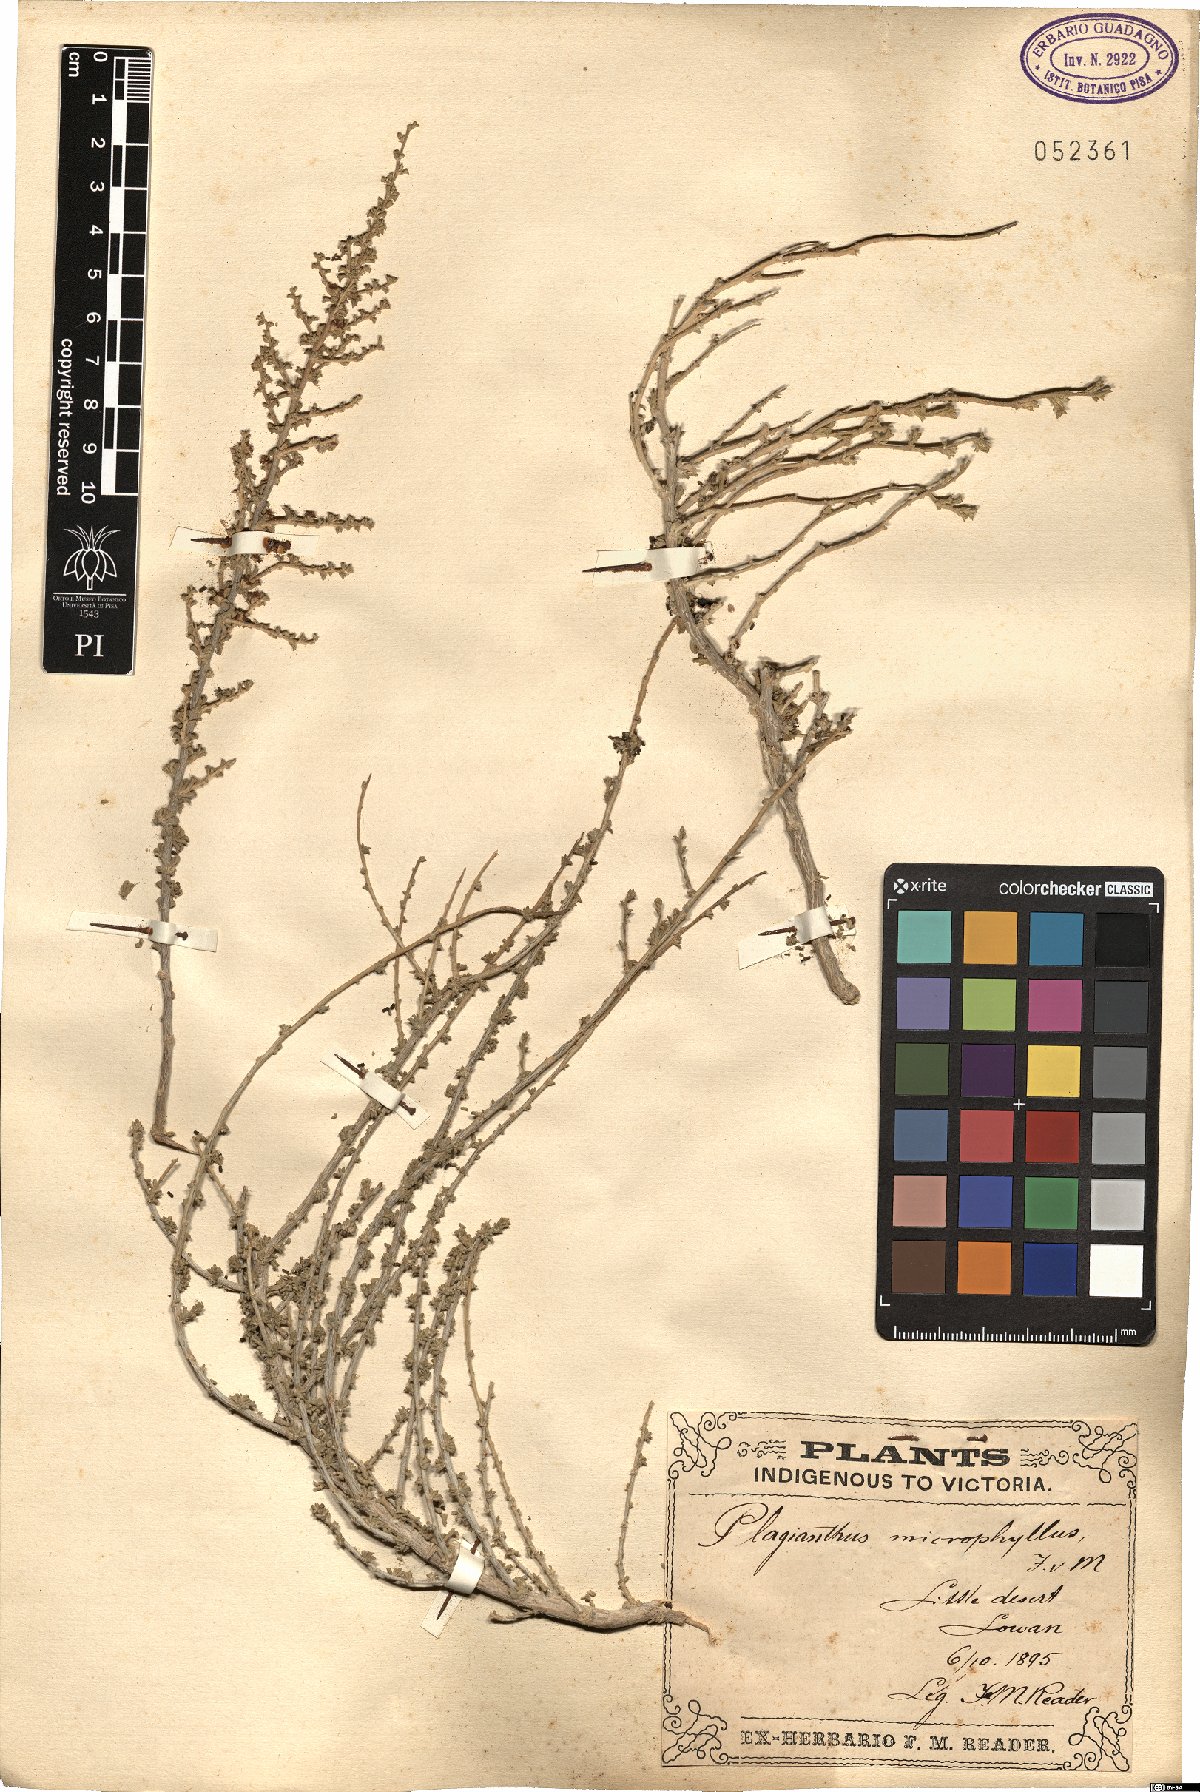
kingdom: Plantae
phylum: Tracheophyta
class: Magnoliopsida
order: Malvales
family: Malvaceae
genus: Lawrencia
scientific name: Lawrencia squamata
